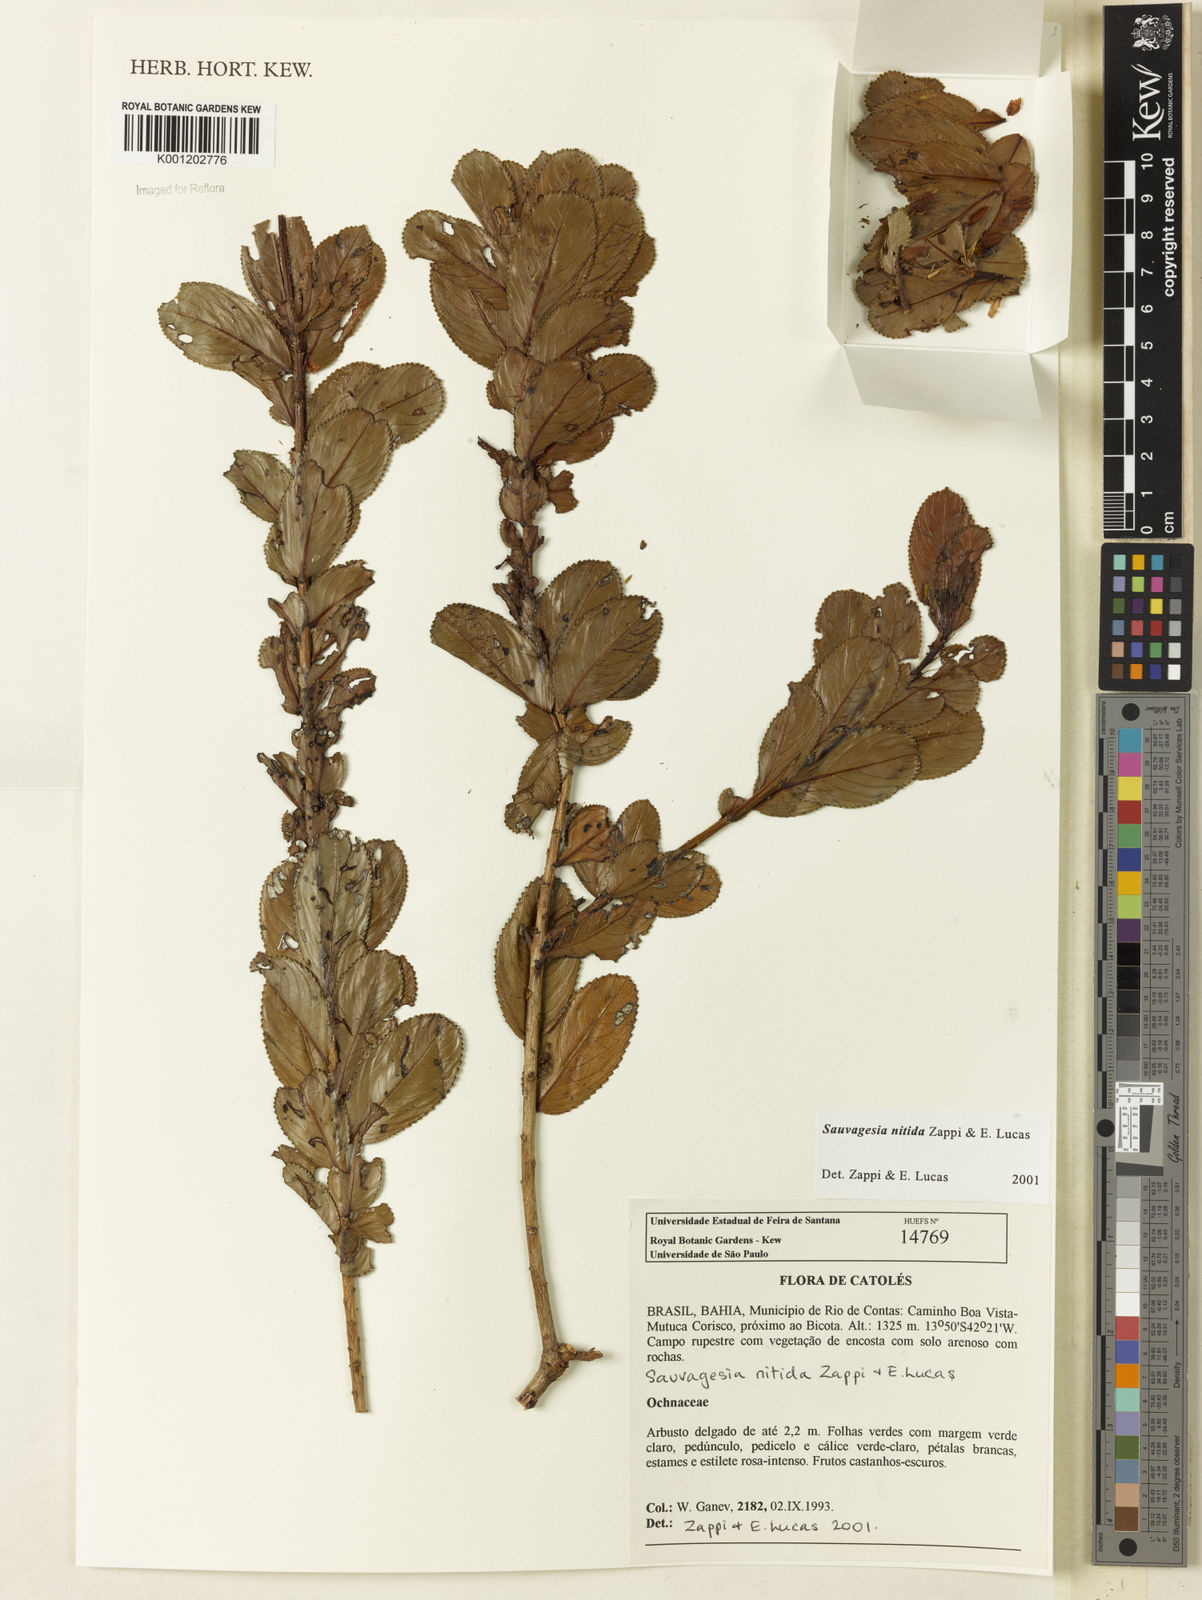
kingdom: Plantae
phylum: Tracheophyta
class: Magnoliopsida
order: Malpighiales
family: Ochnaceae
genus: Sauvagesia
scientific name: Sauvagesia nitida
